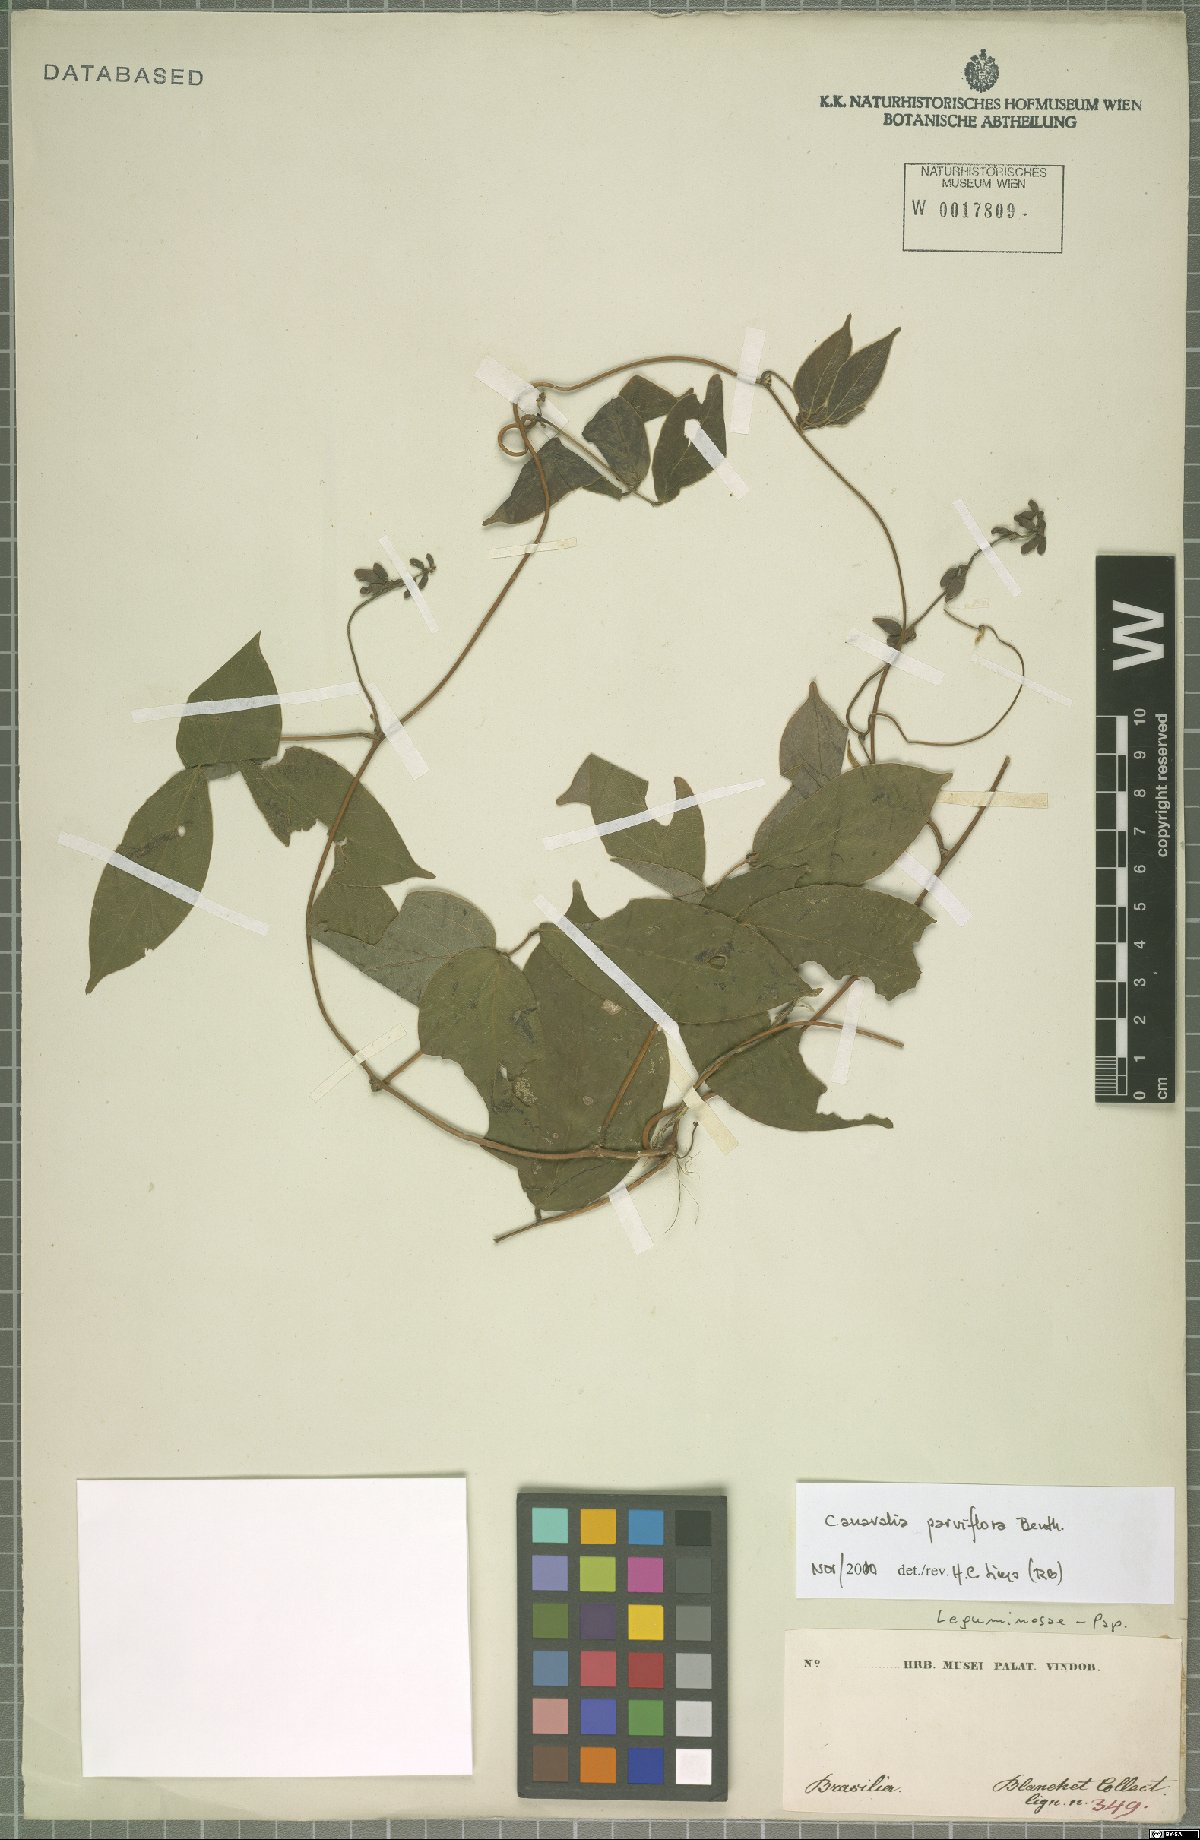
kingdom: Plantae
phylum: Tracheophyta
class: Magnoliopsida
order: Fabales
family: Fabaceae
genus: Canavalia
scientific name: Canavalia parviflora
